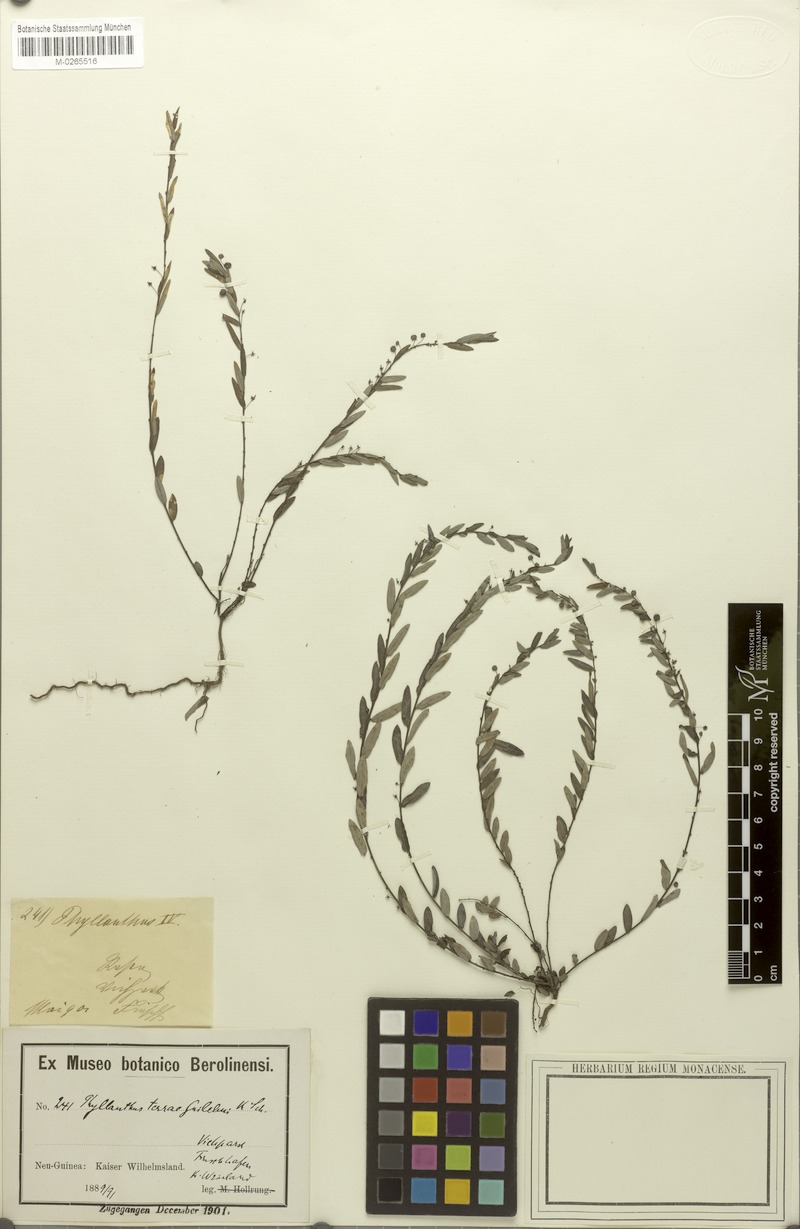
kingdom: Plantae
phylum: Tracheophyta
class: Magnoliopsida
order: Malpighiales
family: Phyllanthaceae
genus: Phyllanthus
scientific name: Phyllanthus virgatus
